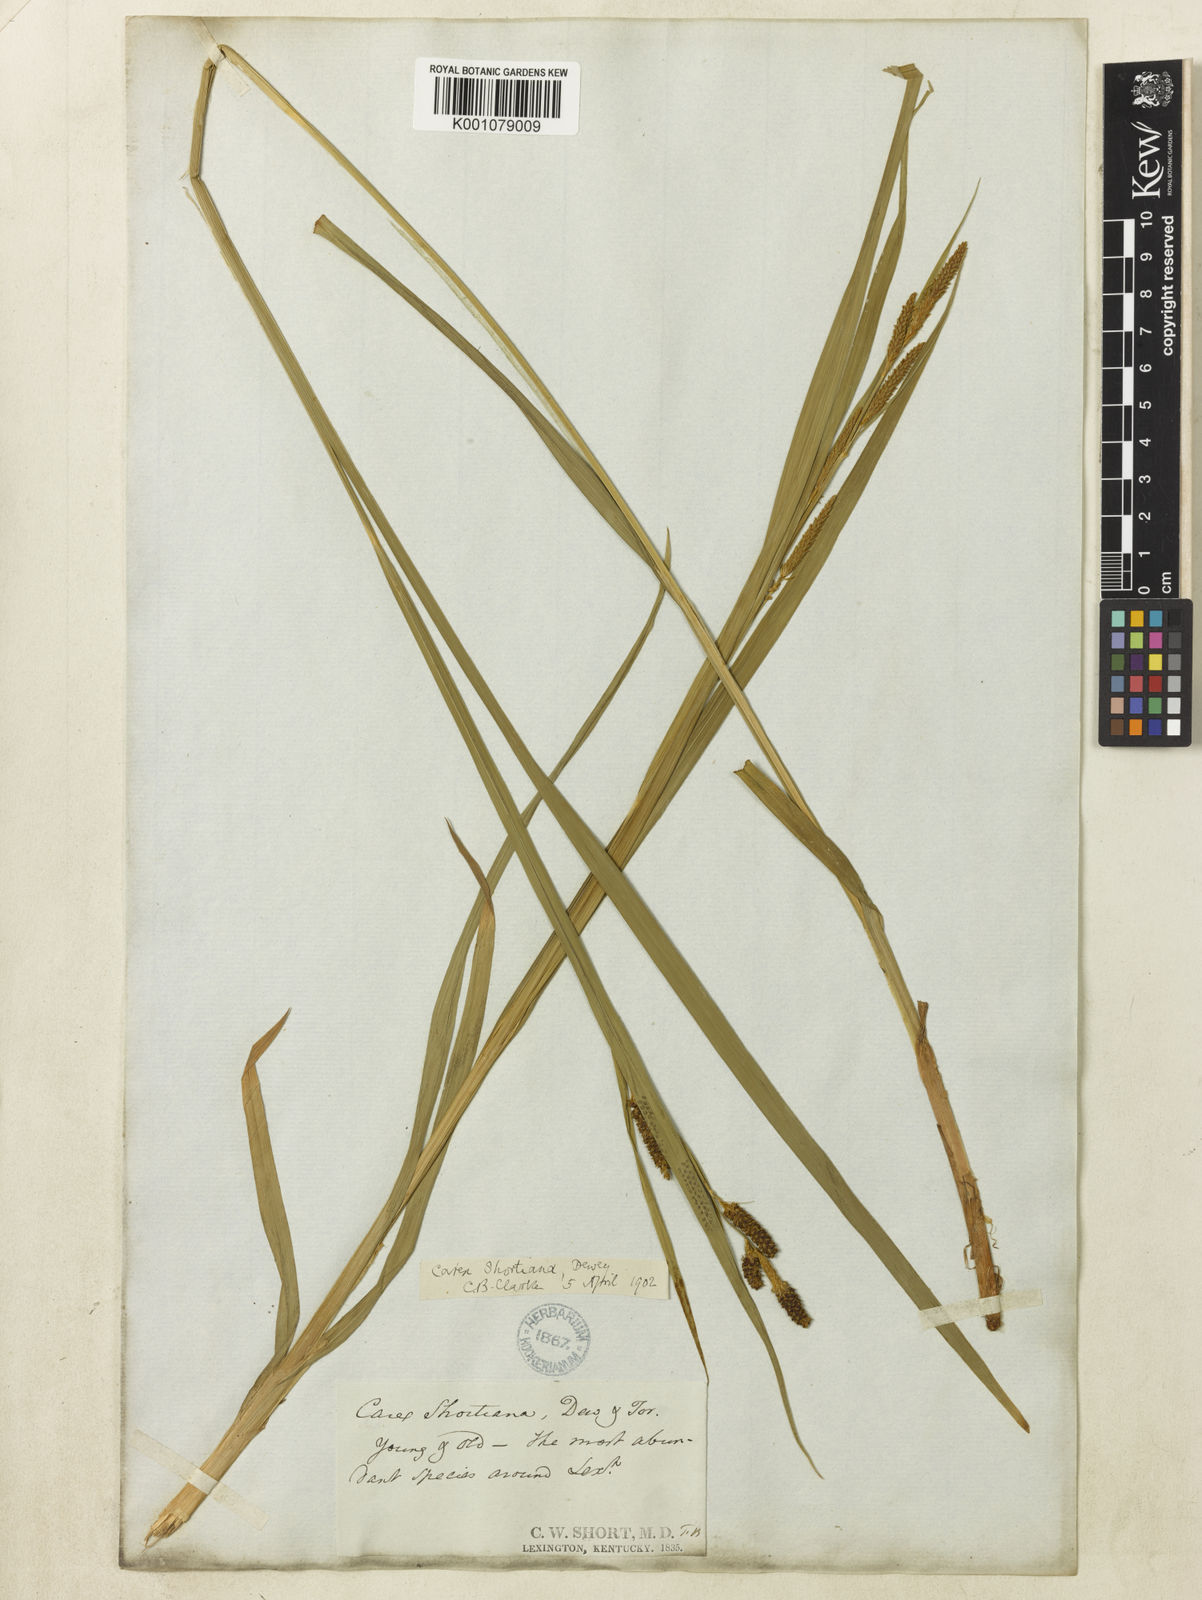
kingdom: Plantae
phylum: Tracheophyta
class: Liliopsida
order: Poales
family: Cyperaceae
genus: Carex
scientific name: Carex shortiana
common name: Short's sedge
